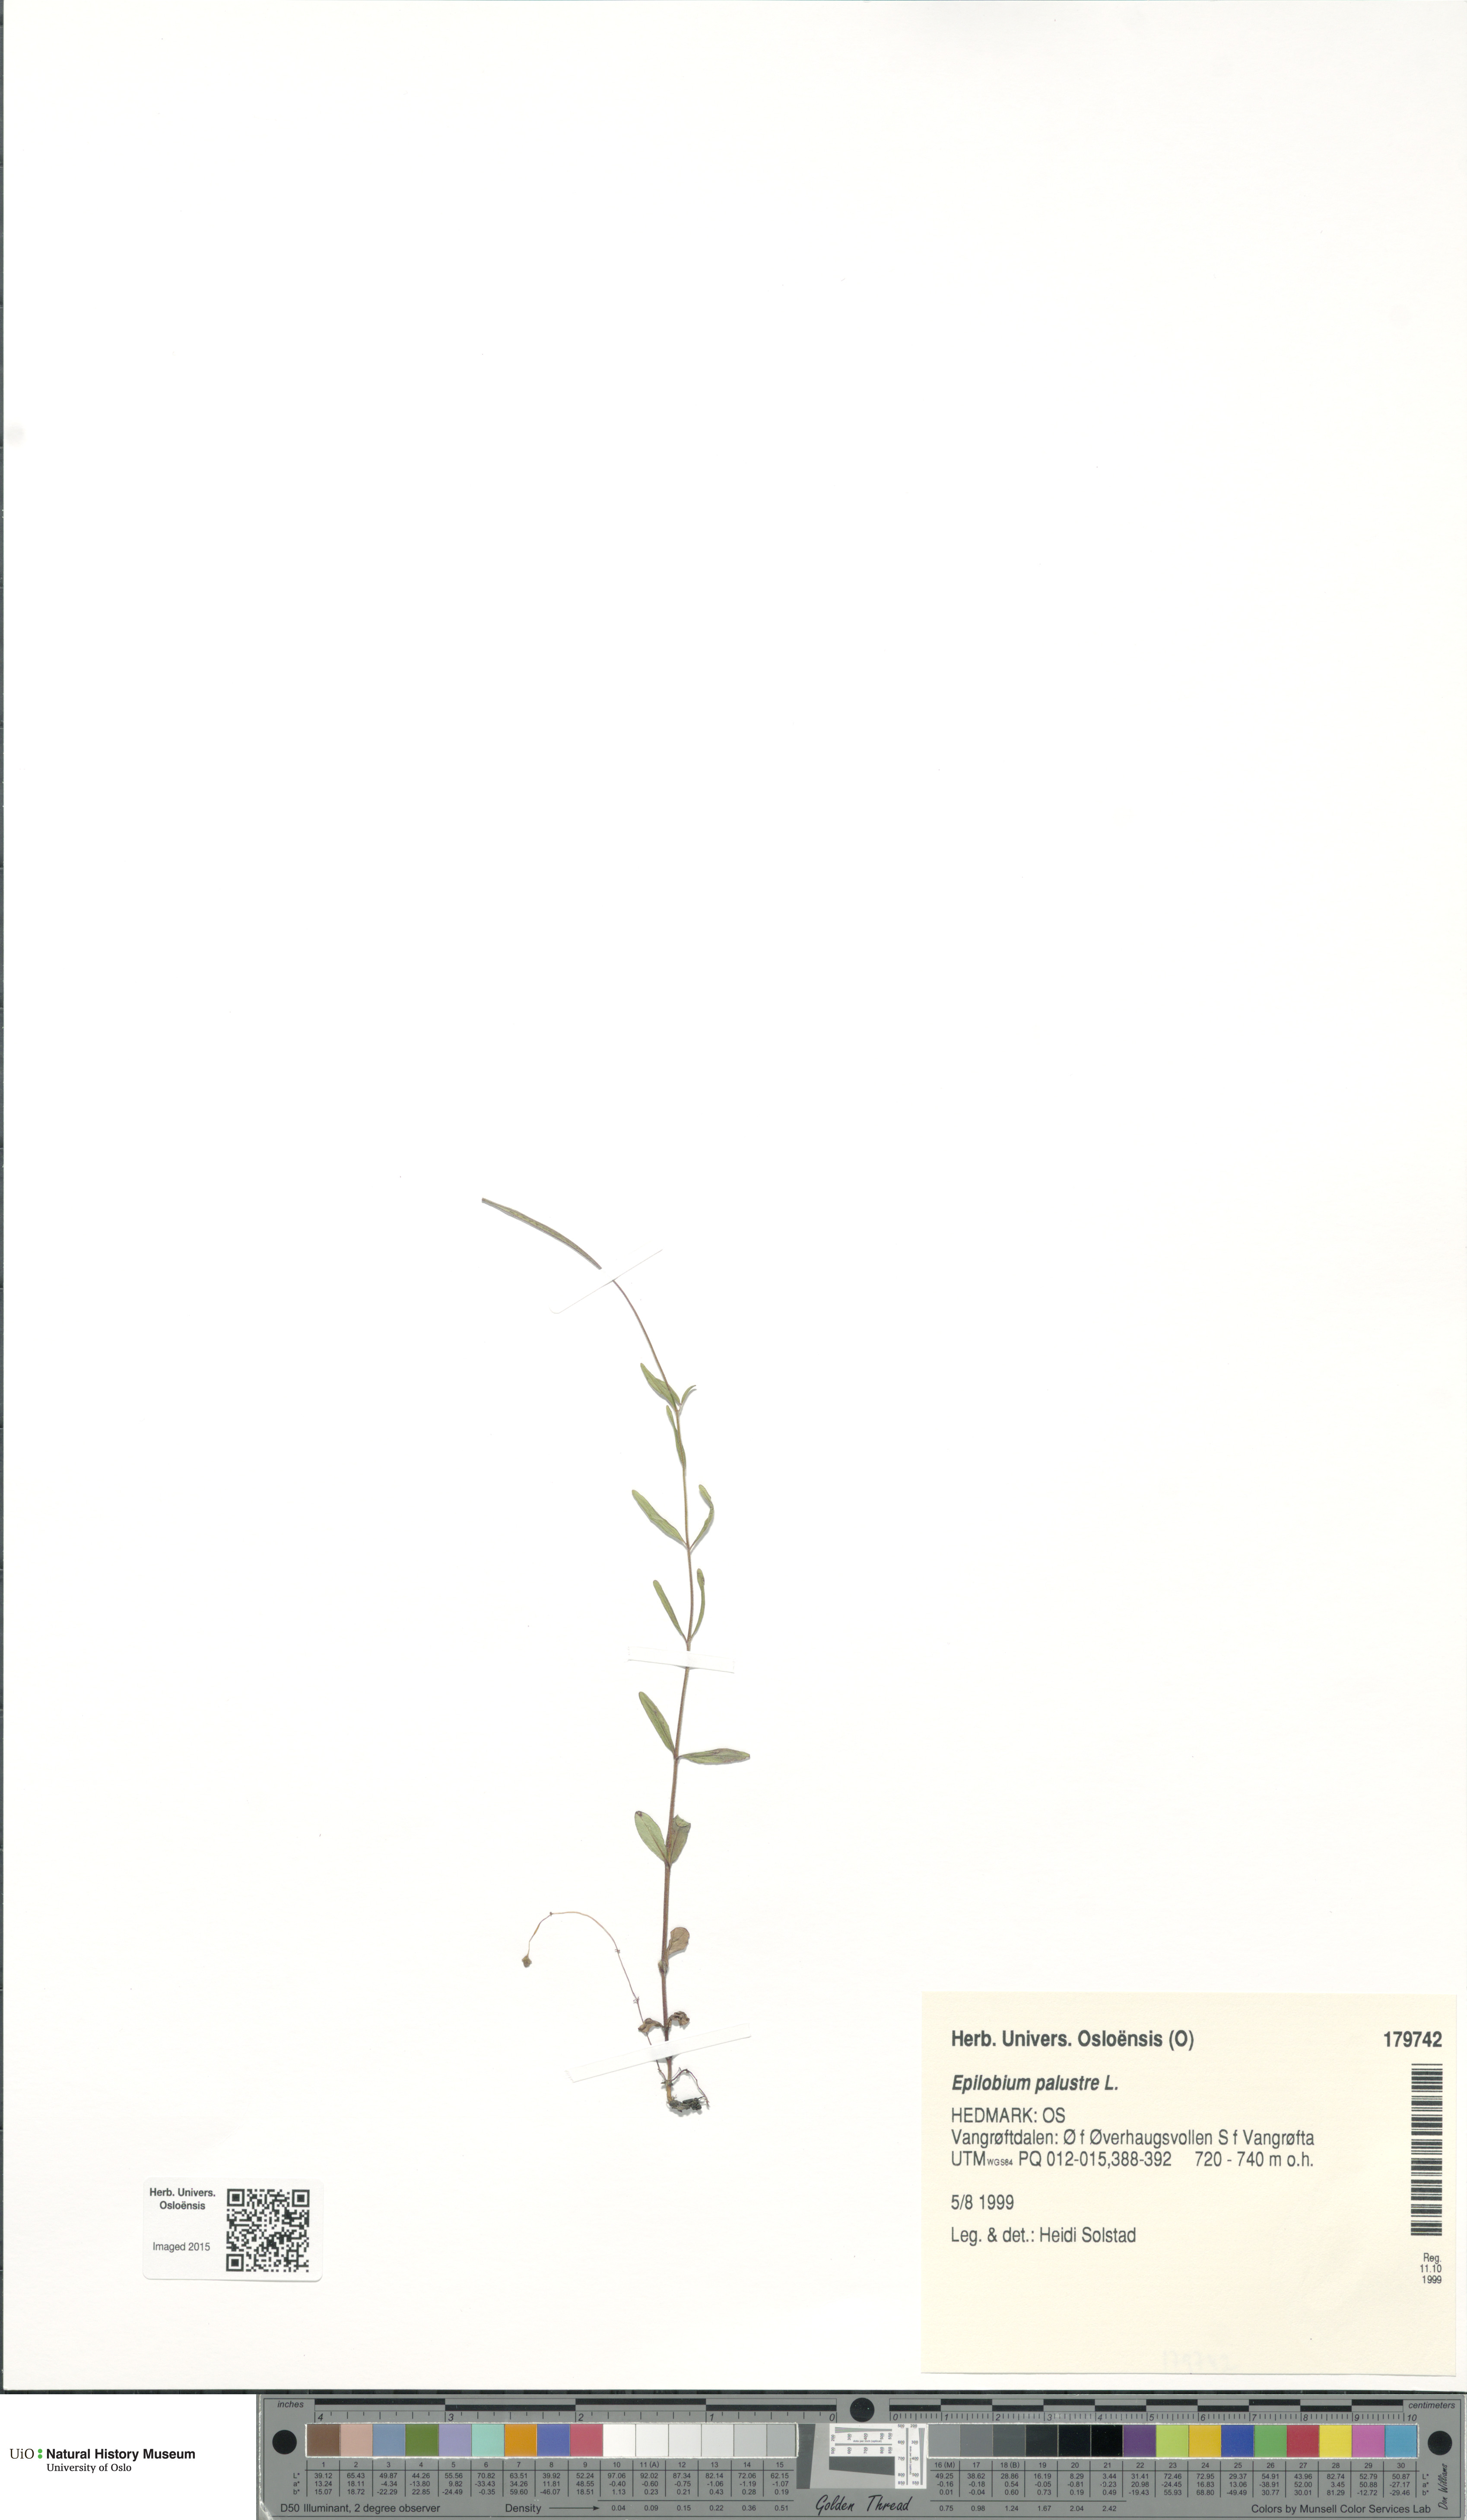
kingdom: Plantae
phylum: Tracheophyta
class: Magnoliopsida
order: Myrtales
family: Onagraceae
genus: Epilobium
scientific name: Epilobium palustre
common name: Marsh willowherb
